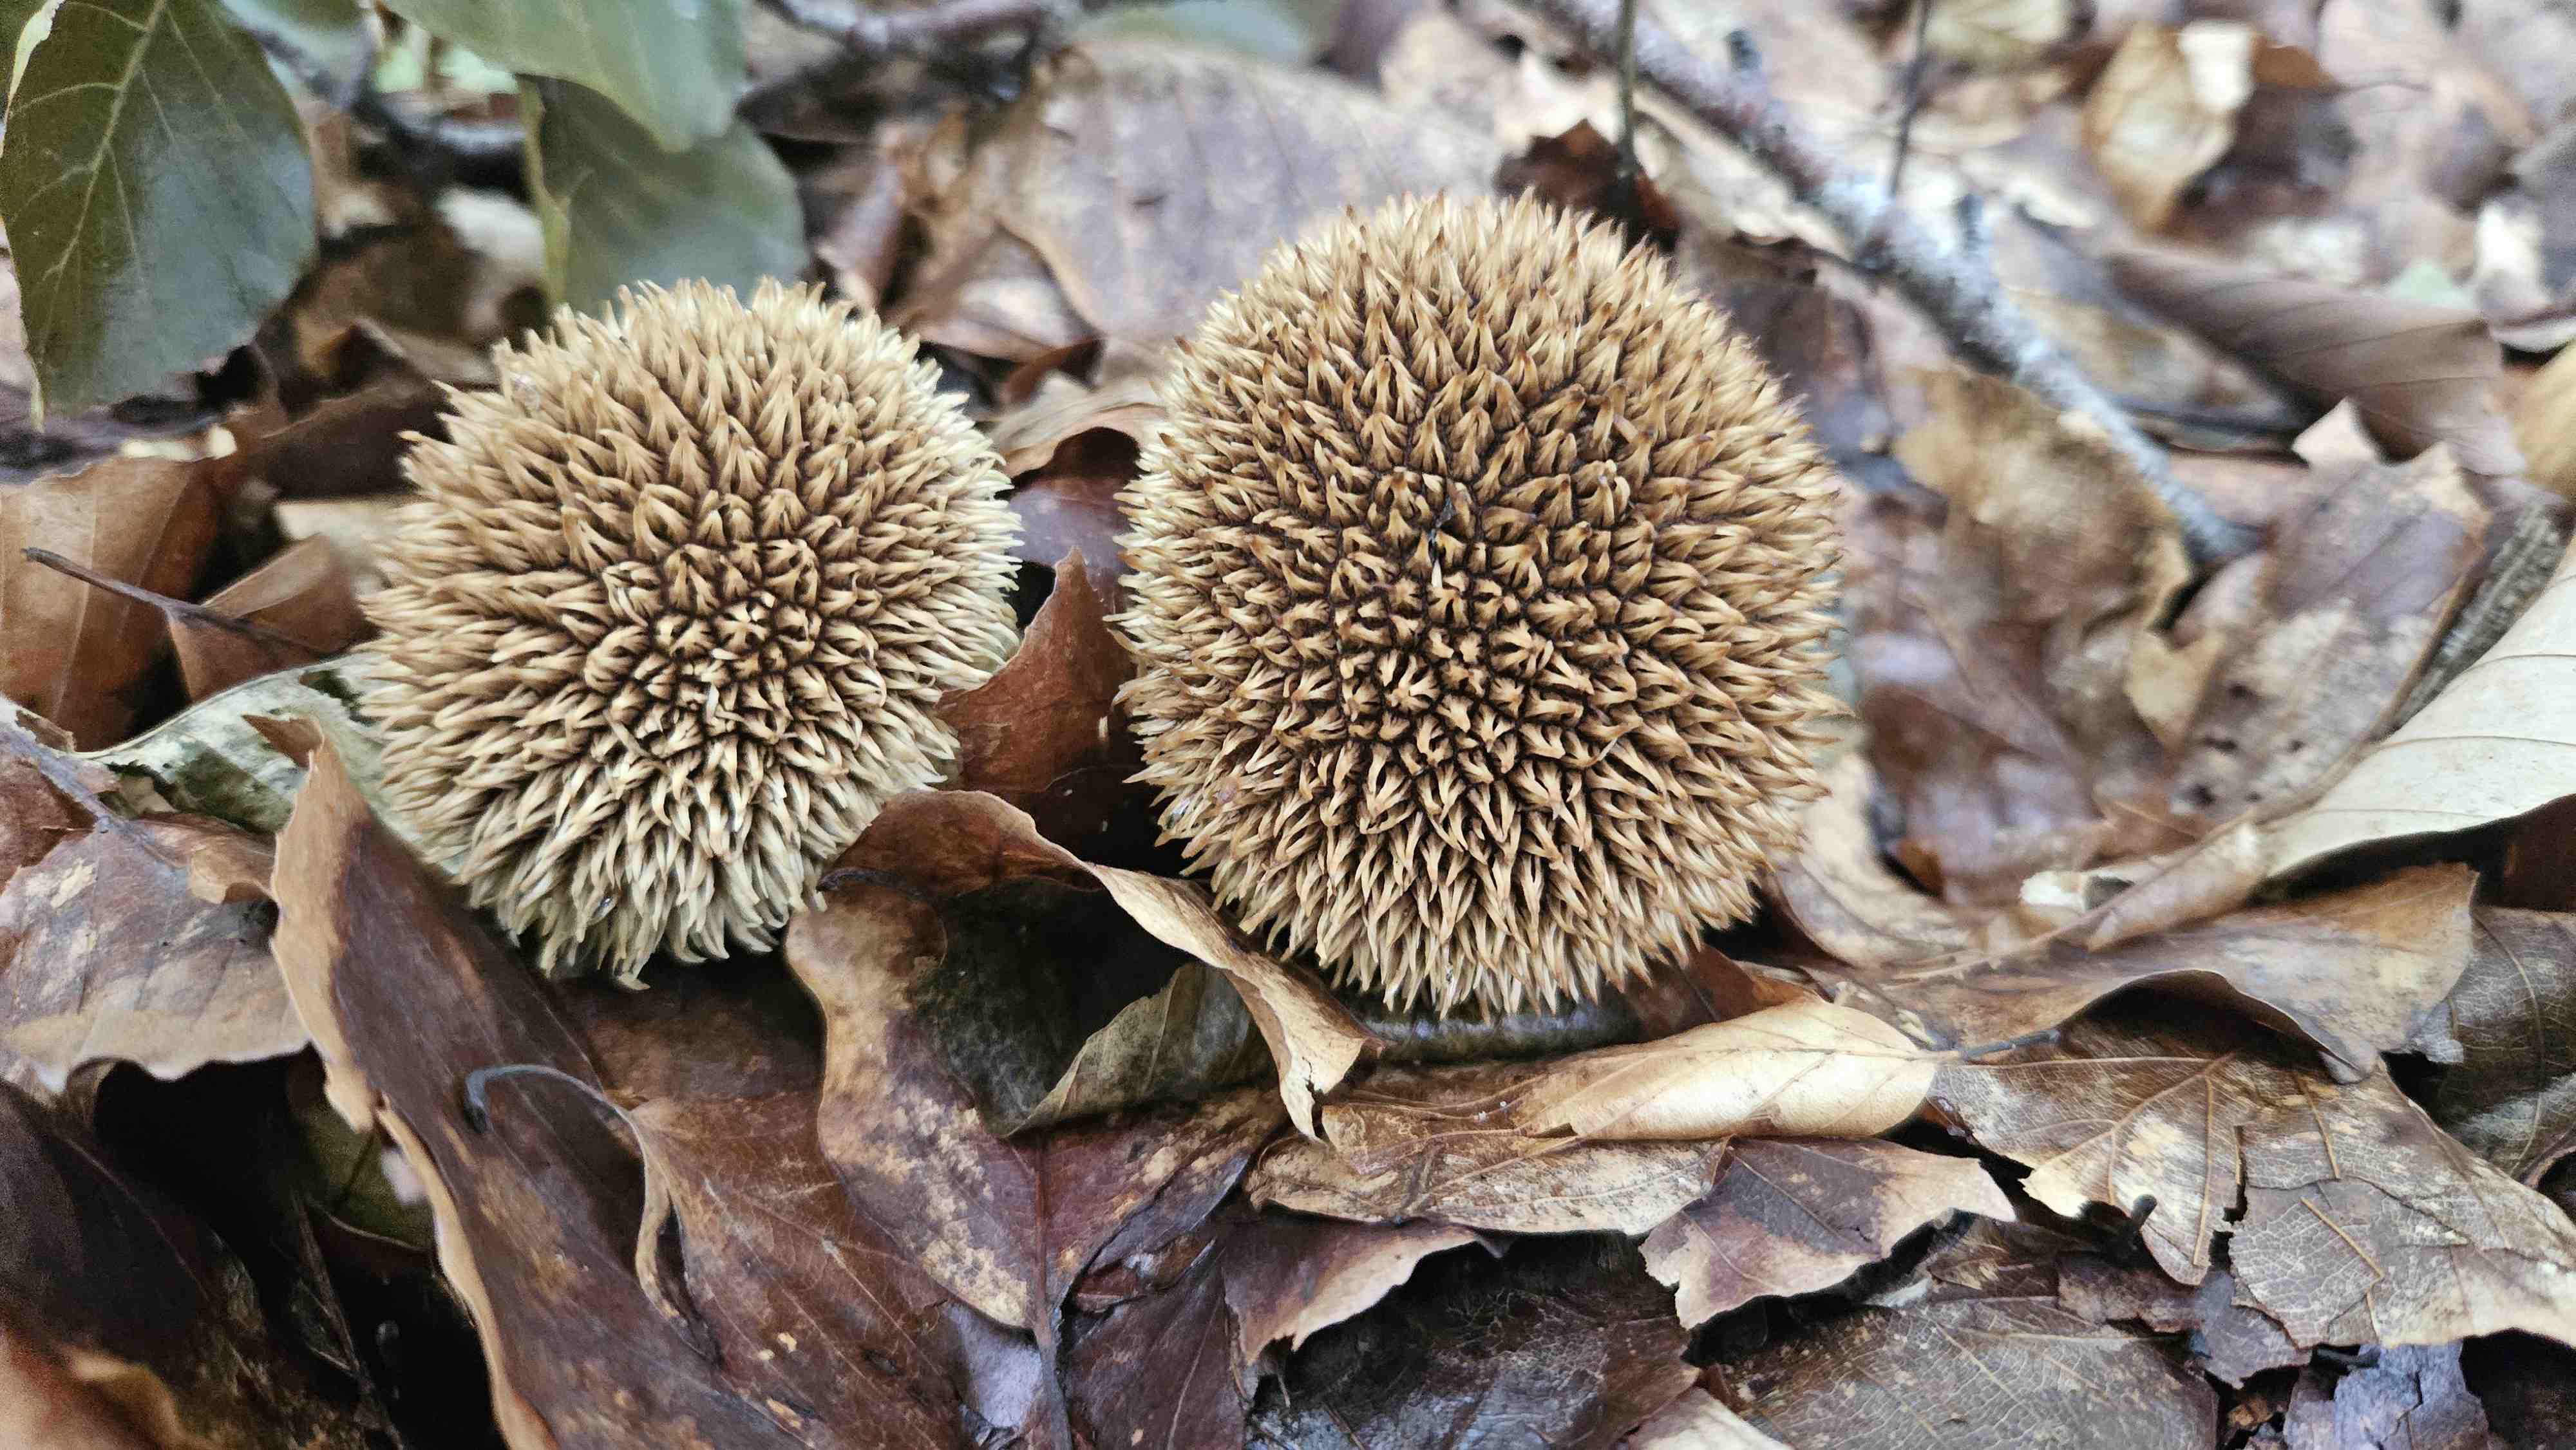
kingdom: Fungi
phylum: Basidiomycota
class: Agaricomycetes
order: Agaricales
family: Lycoperdaceae
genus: Lycoperdon
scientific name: Lycoperdon echinatum
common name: pindsvine-støvbold
